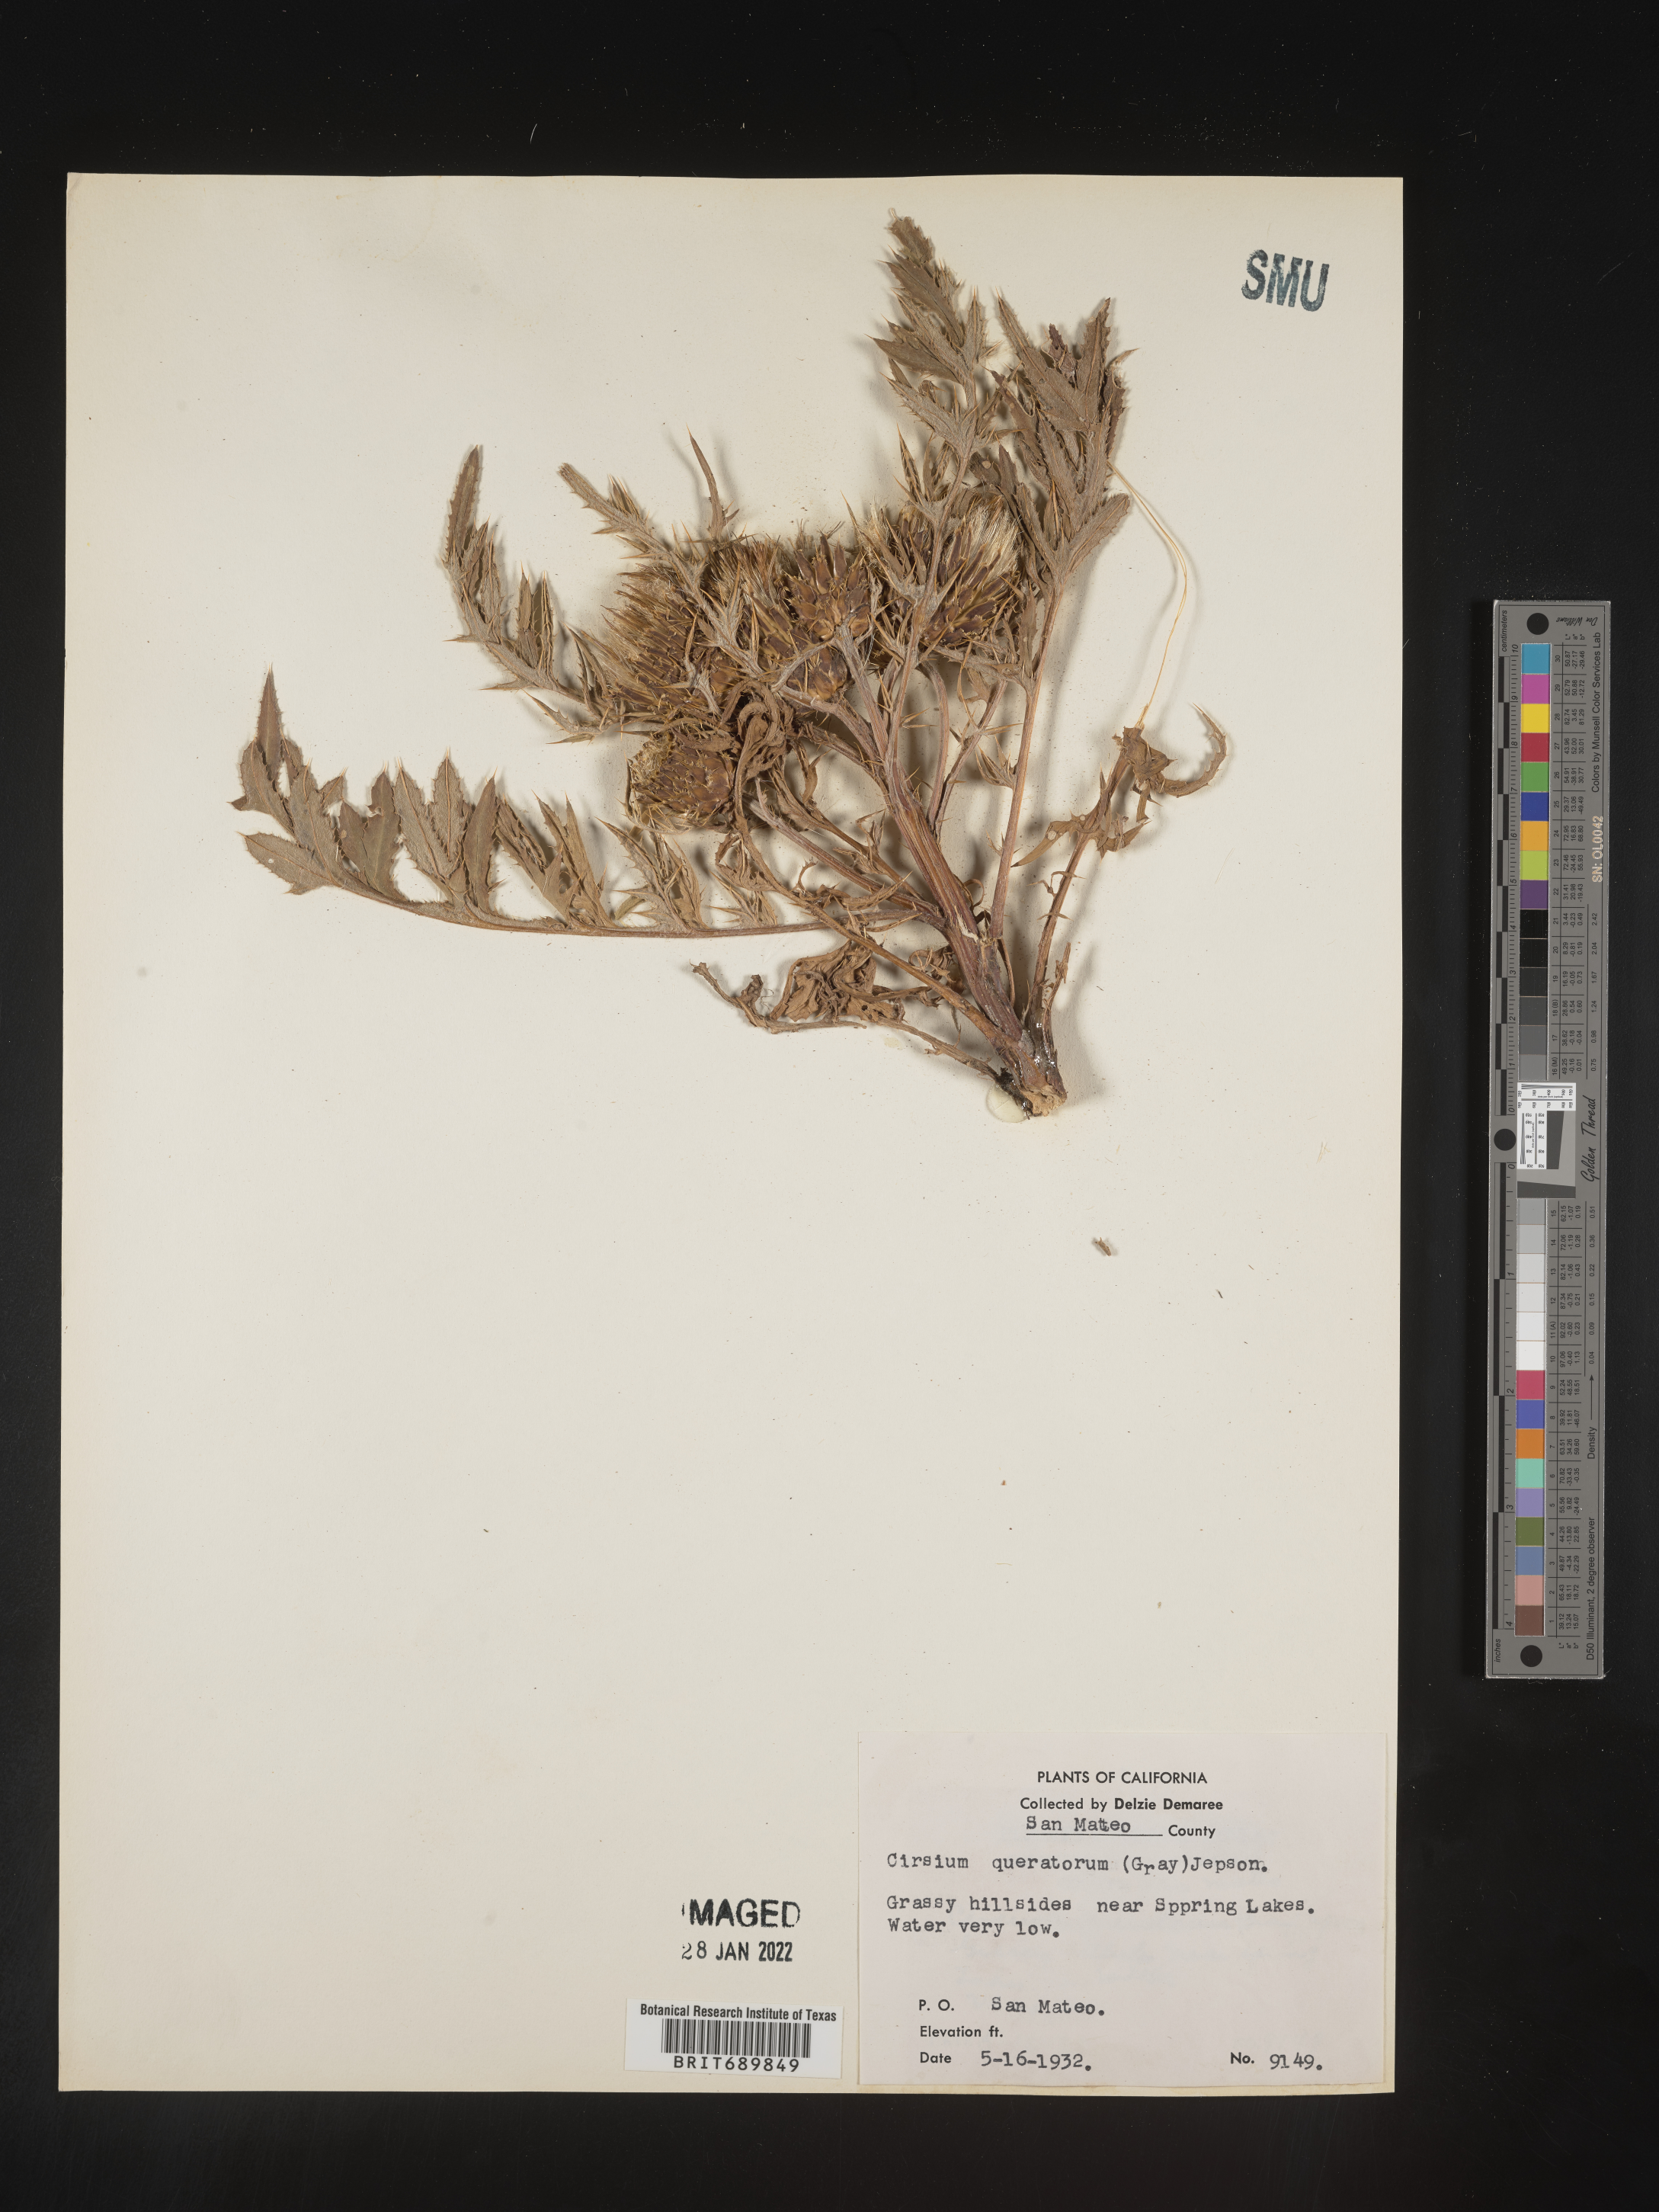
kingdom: Plantae
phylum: Tracheophyta
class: Magnoliopsida
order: Asterales
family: Asteraceae
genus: Cirsium
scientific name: Cirsium
